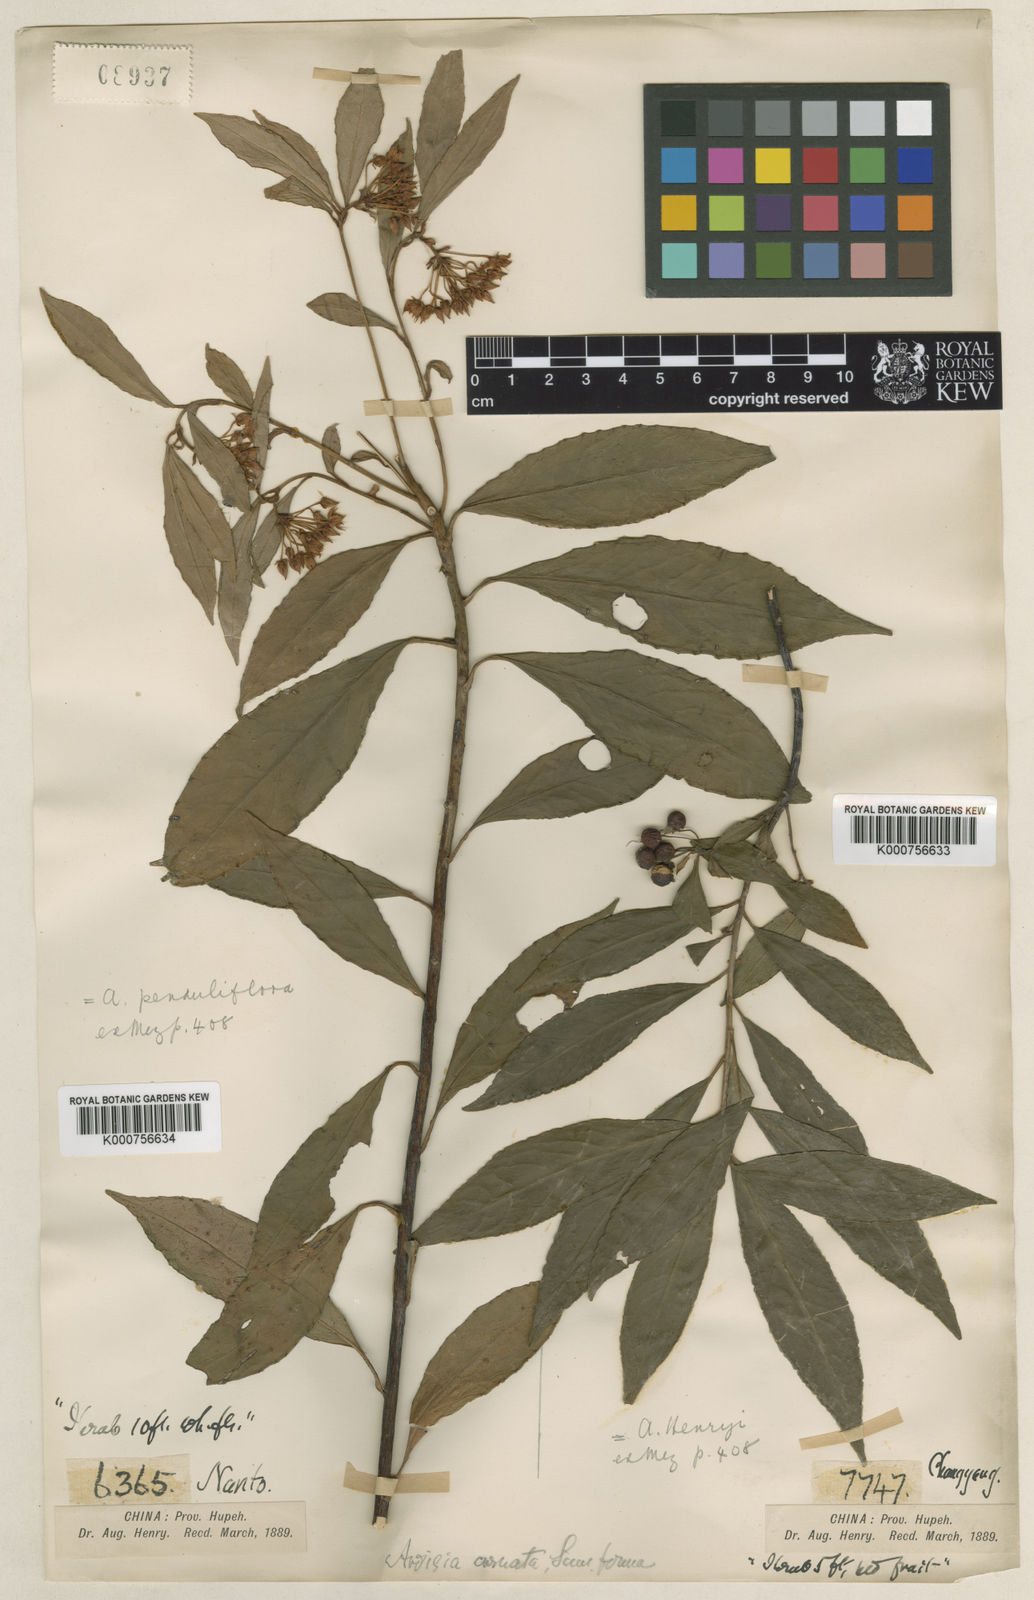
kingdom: Plantae
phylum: Tracheophyta
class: Magnoliopsida
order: Ericales
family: Primulaceae
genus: Ardisia
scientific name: Ardisia crispa
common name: Japanese-holly
